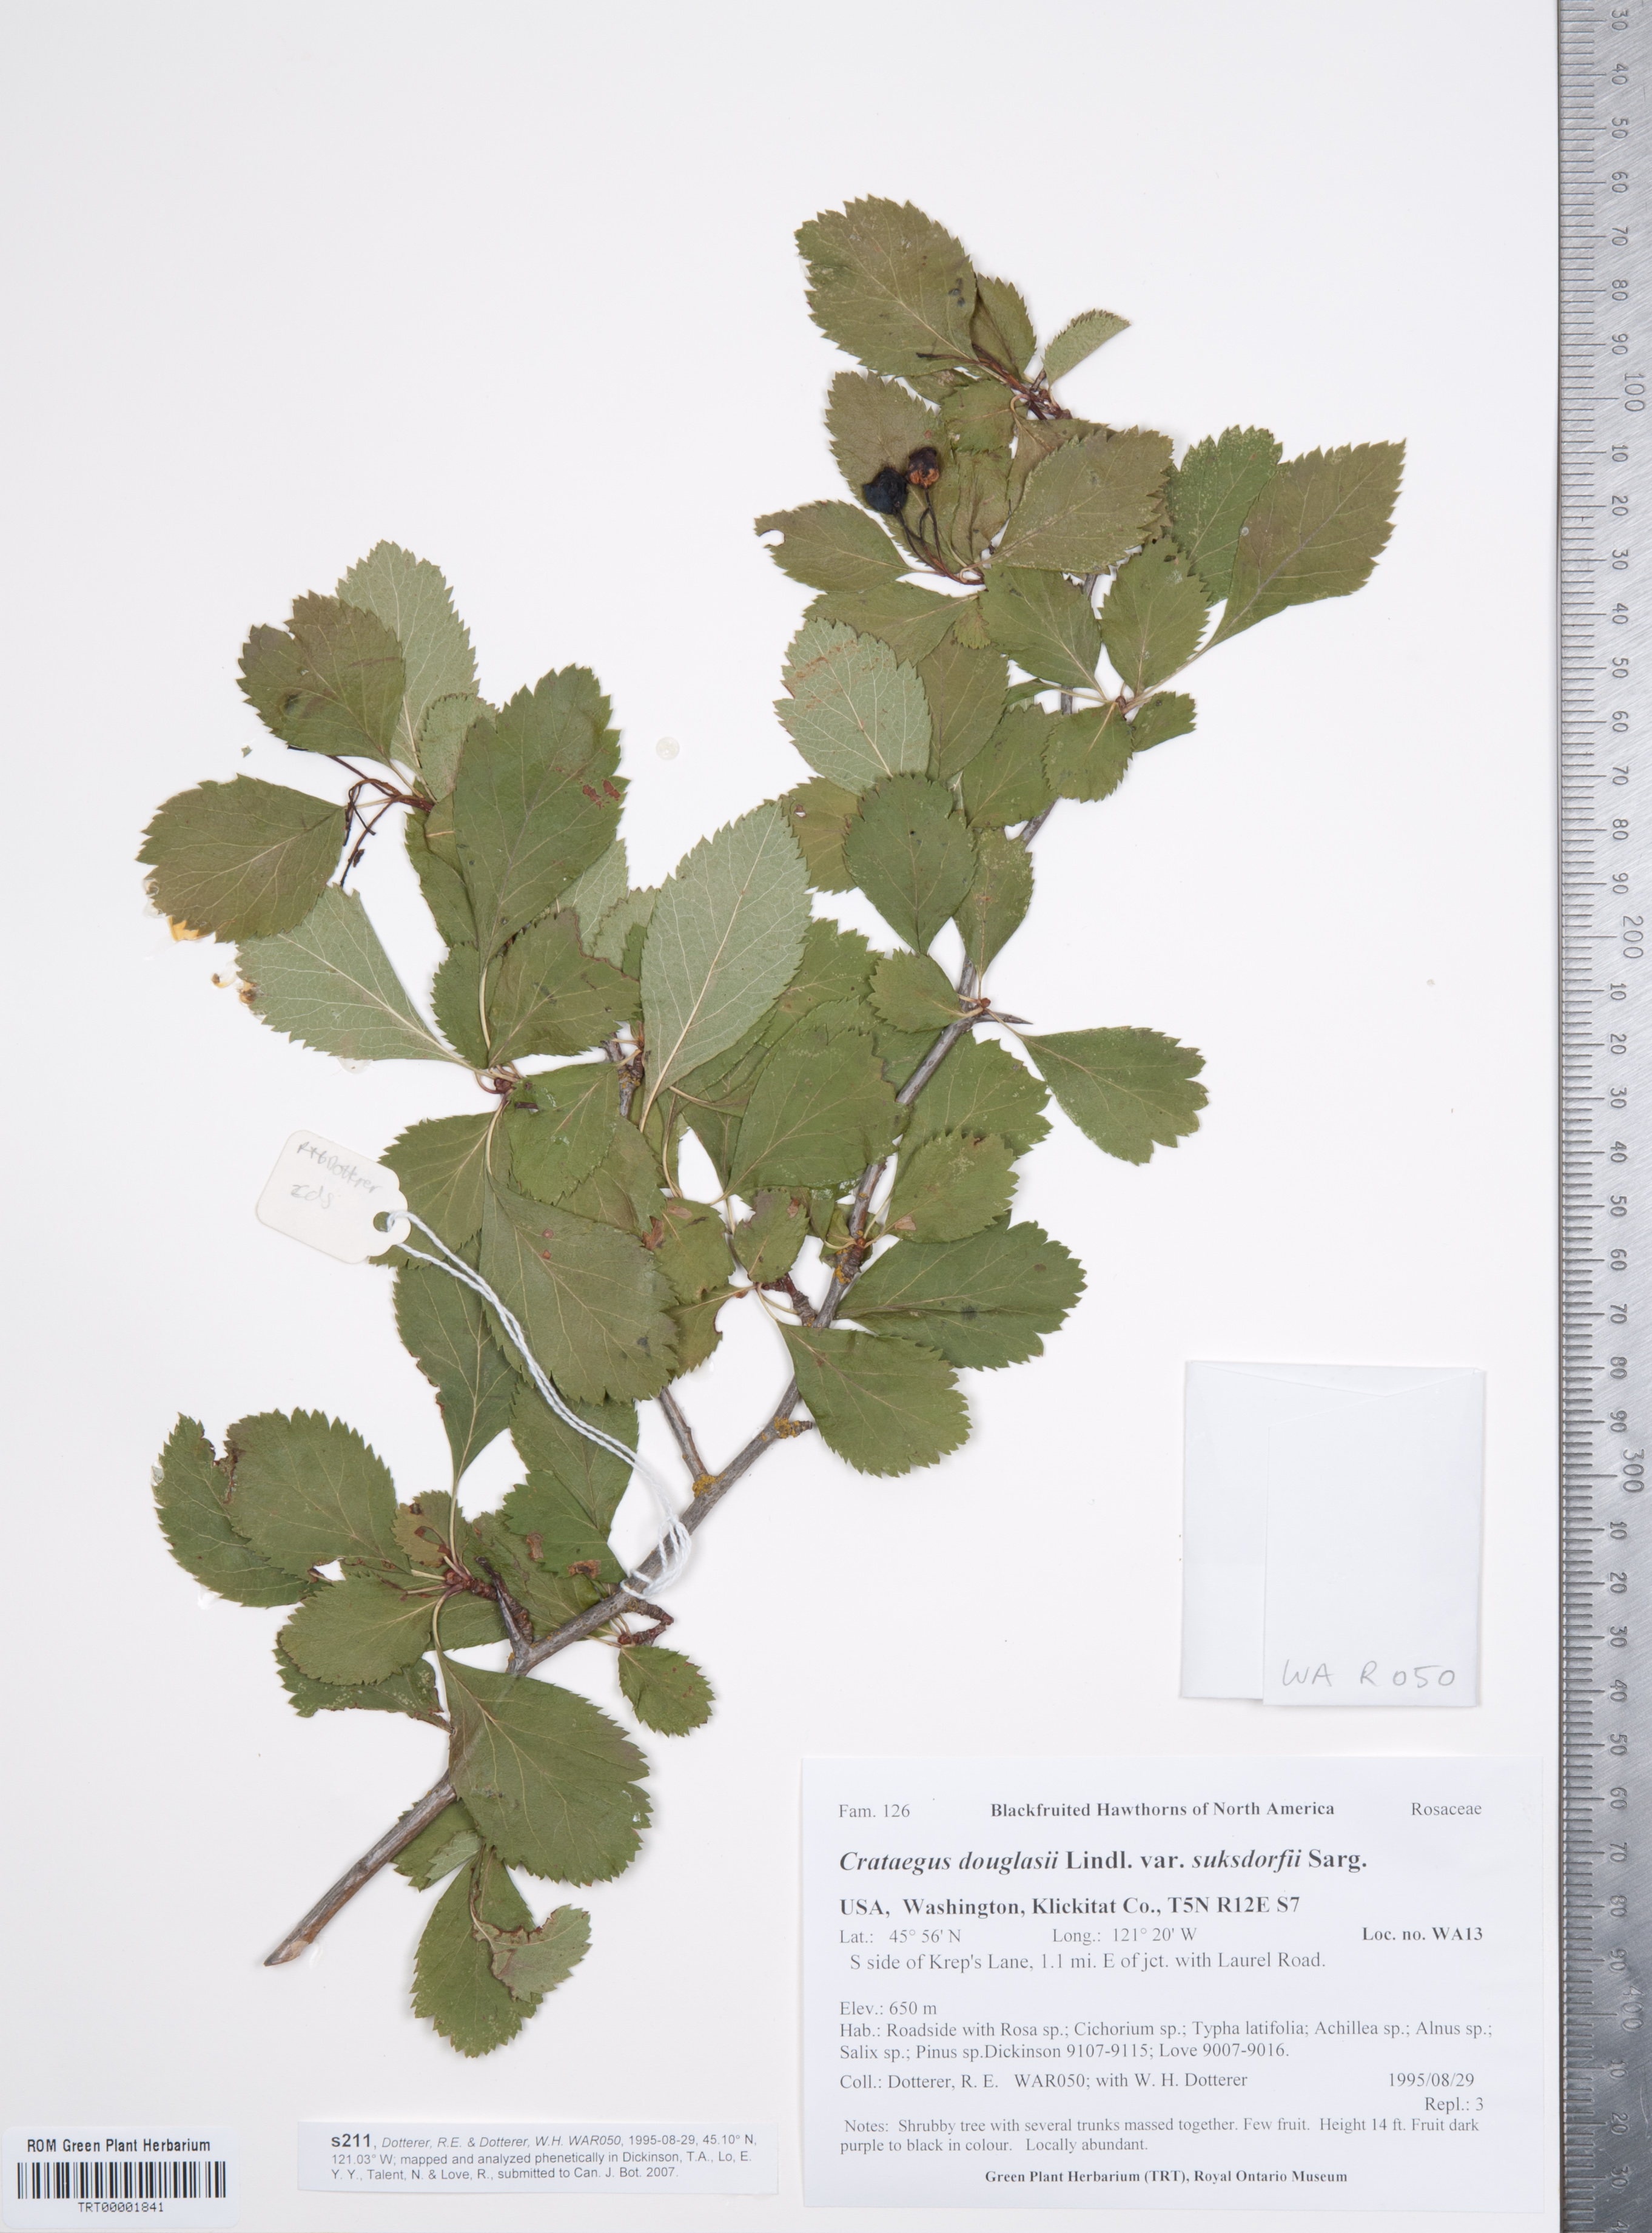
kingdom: Plantae
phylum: Tracheophyta
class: Magnoliopsida
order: Rosales
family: Rosaceae
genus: Crataegus
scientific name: Crataegus gaylussacia
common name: Huckleberry hawthorn
